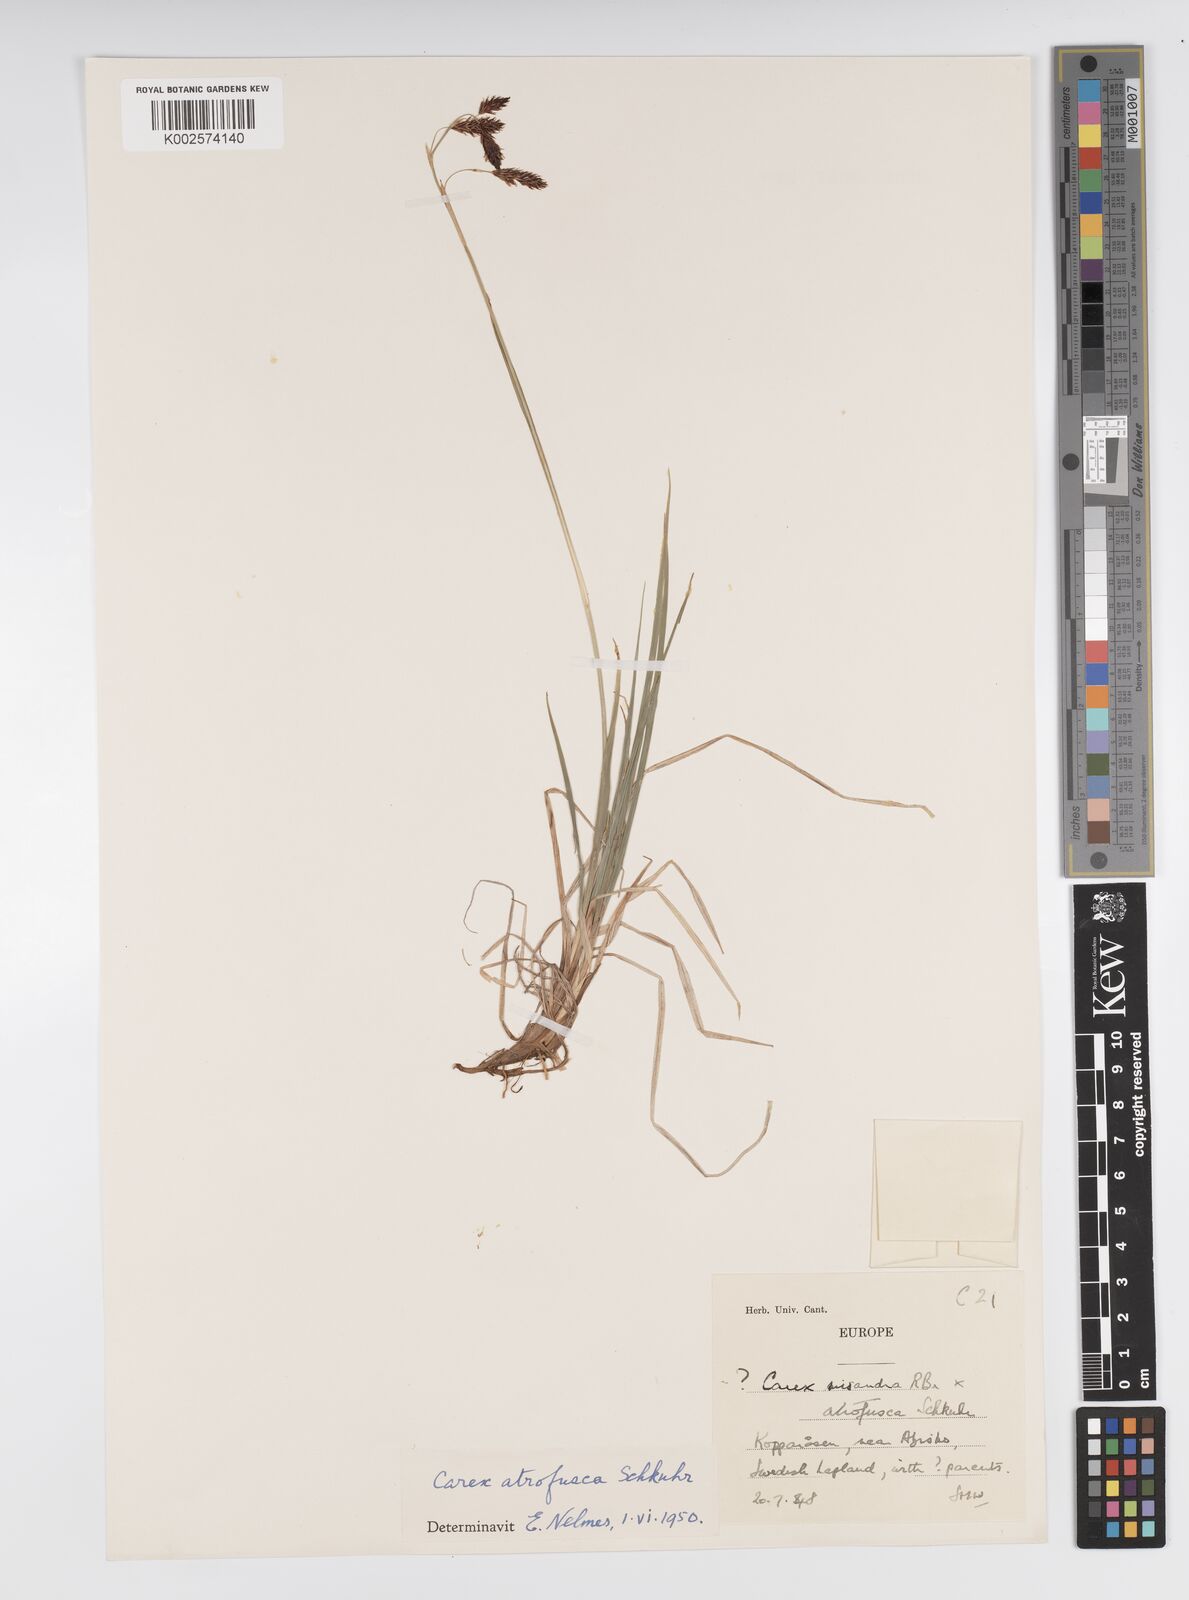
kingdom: Plantae
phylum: Tracheophyta
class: Liliopsida
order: Poales
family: Cyperaceae
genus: Carex
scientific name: Carex atrofusca
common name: Scorched alpine-sedge
